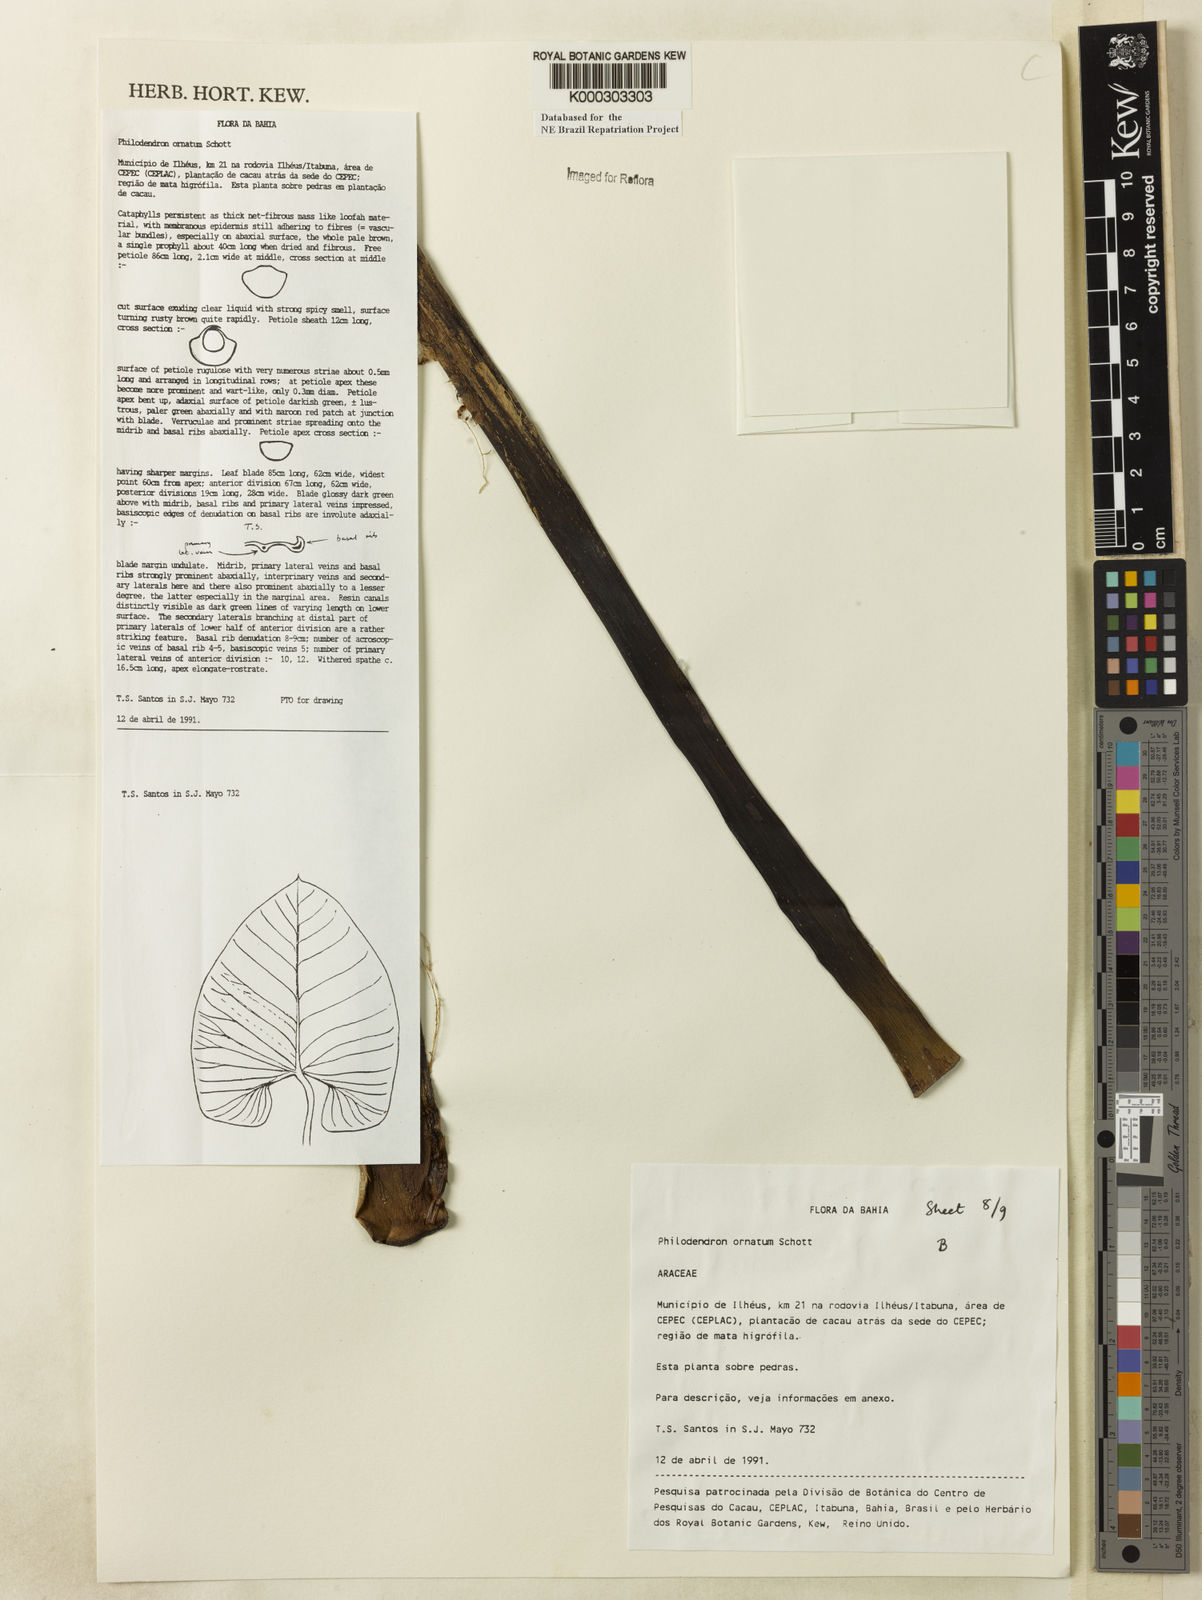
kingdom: Plantae
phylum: Tracheophyta
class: Liliopsida
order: Alismatales
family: Araceae
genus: Philodendron
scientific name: Philodendron ornatum
